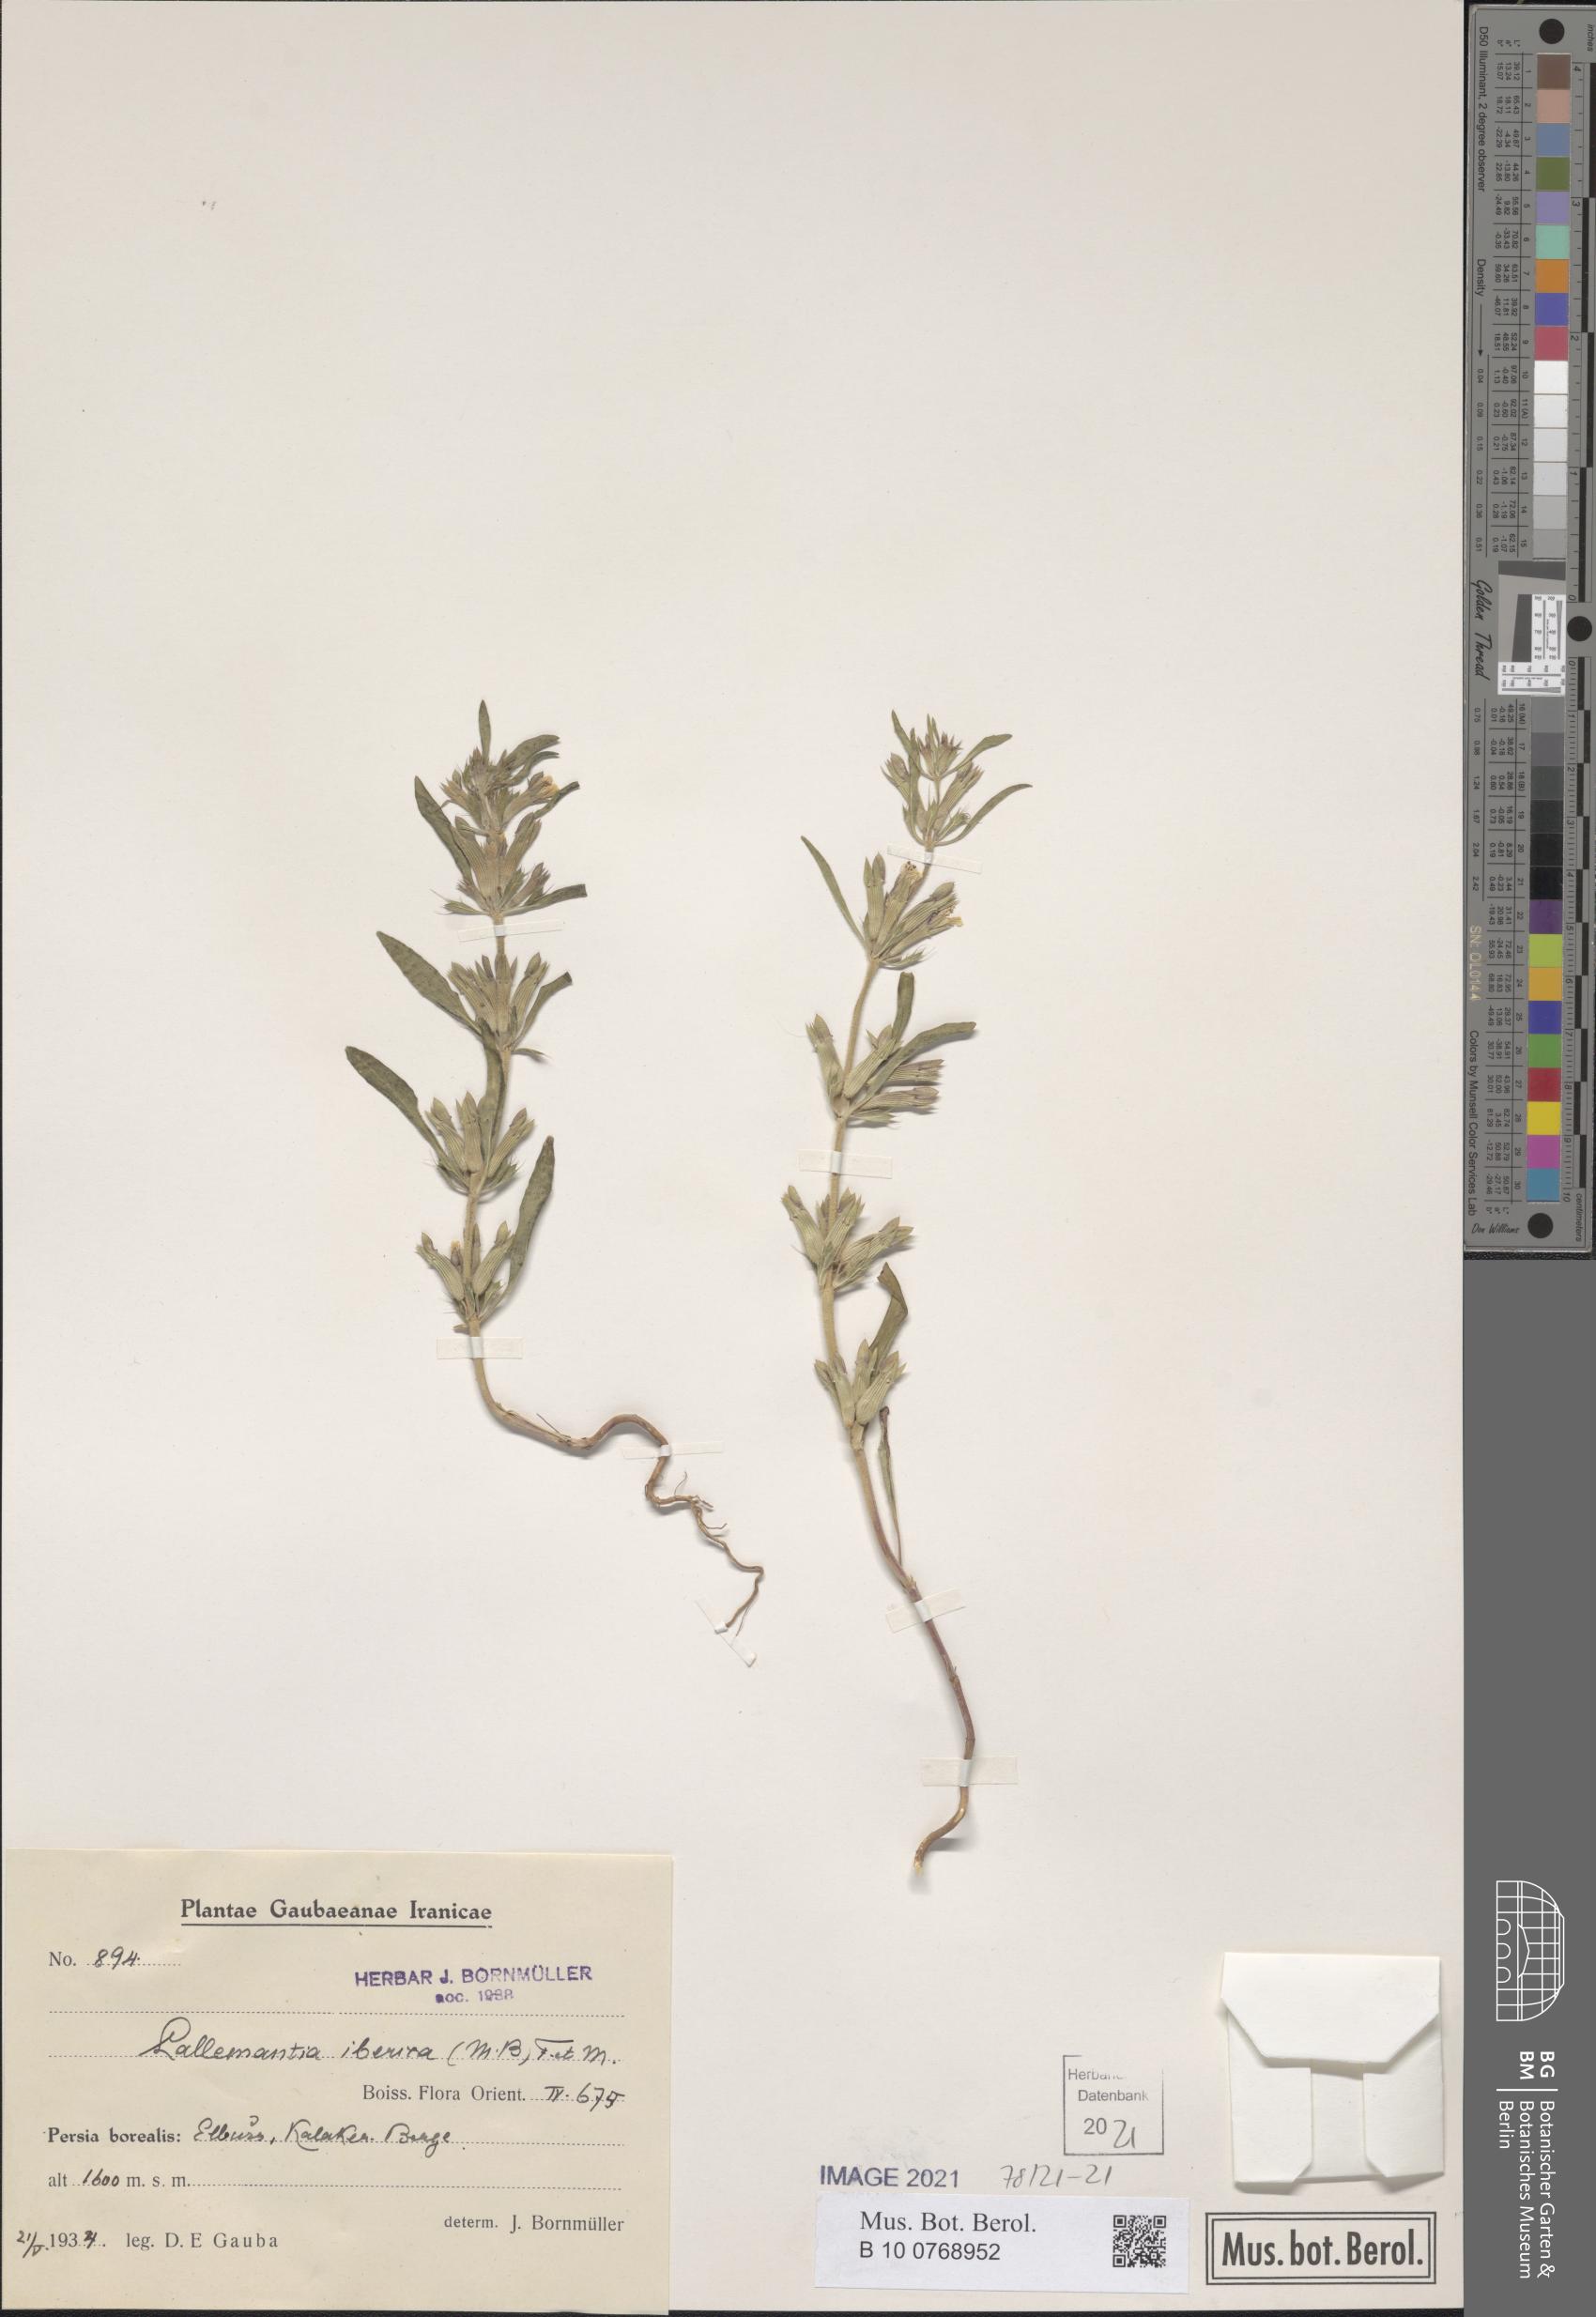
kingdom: Plantae
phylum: Tracheophyta
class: Magnoliopsida
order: Lamiales
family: Lamiaceae
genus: Lallemantia
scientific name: Lallemantia iberica
